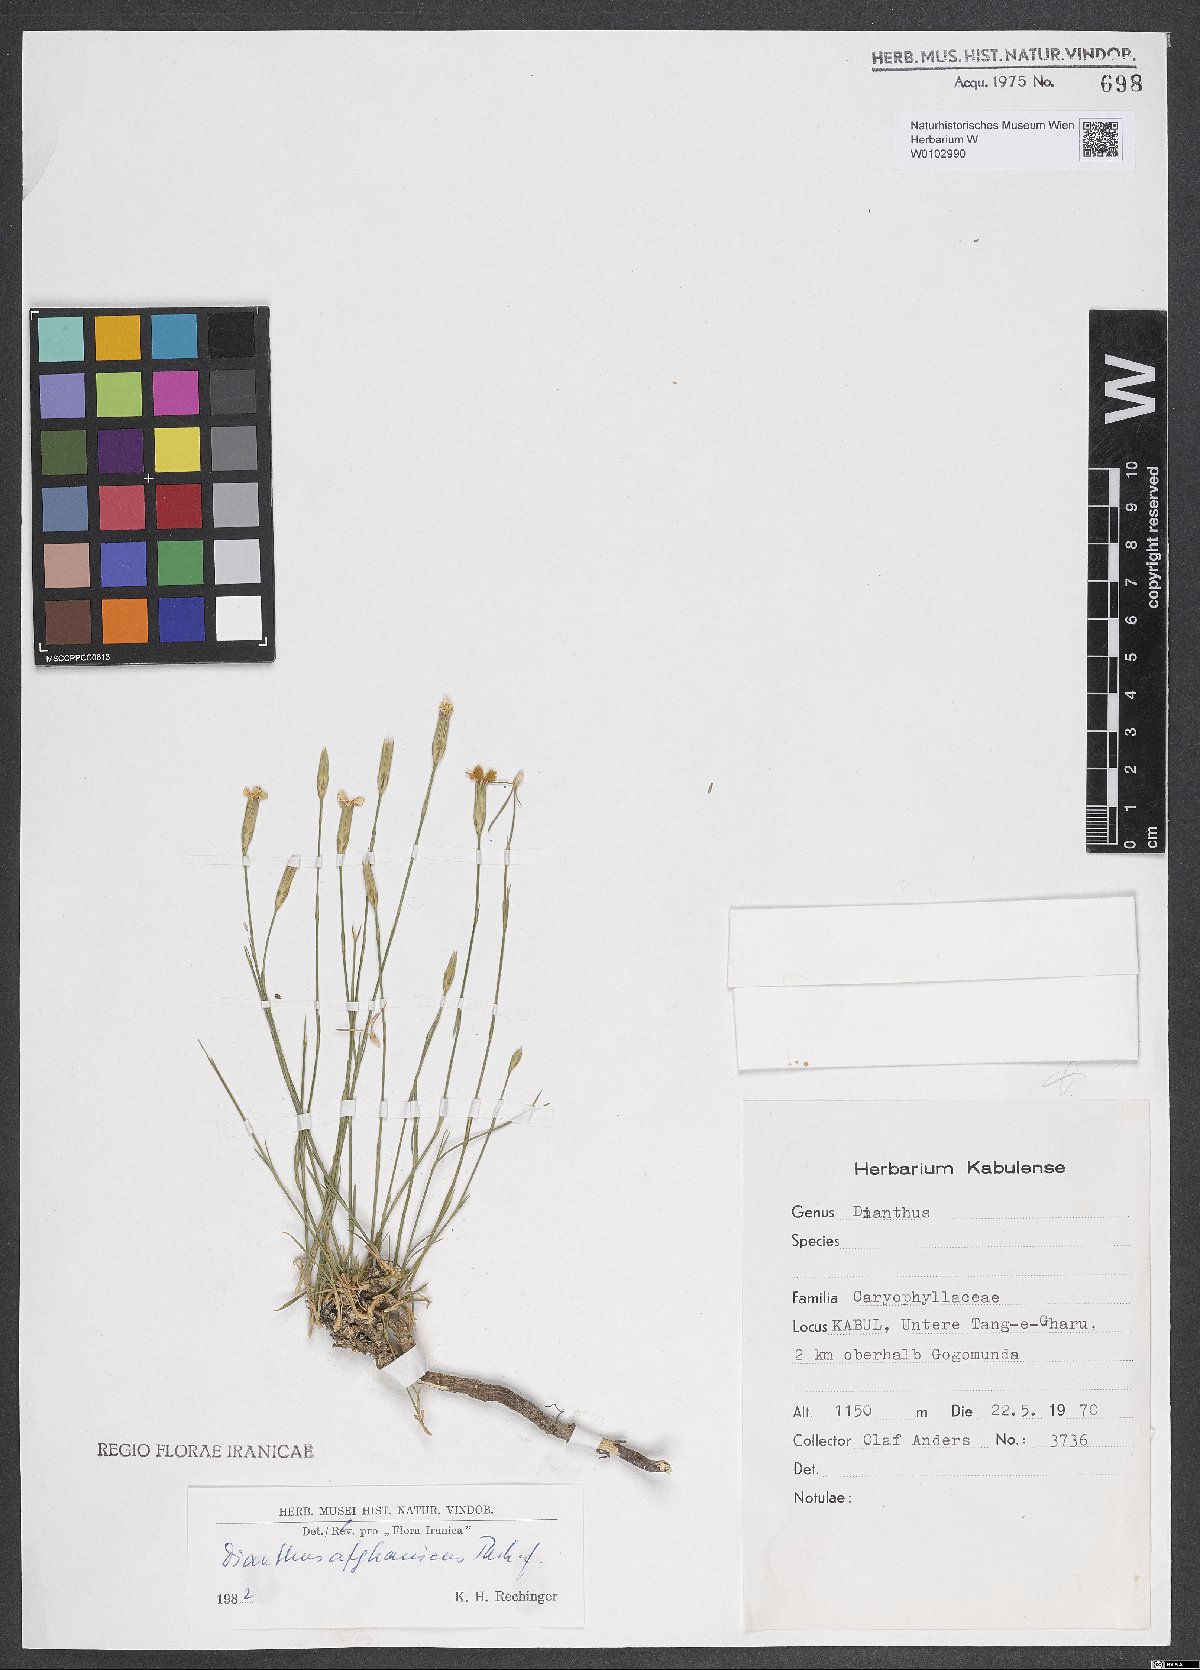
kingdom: Plantae
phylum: Tracheophyta
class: Magnoliopsida
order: Caryophyllales
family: Caryophyllaceae
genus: Dianthus
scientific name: Dianthus afghanicus
